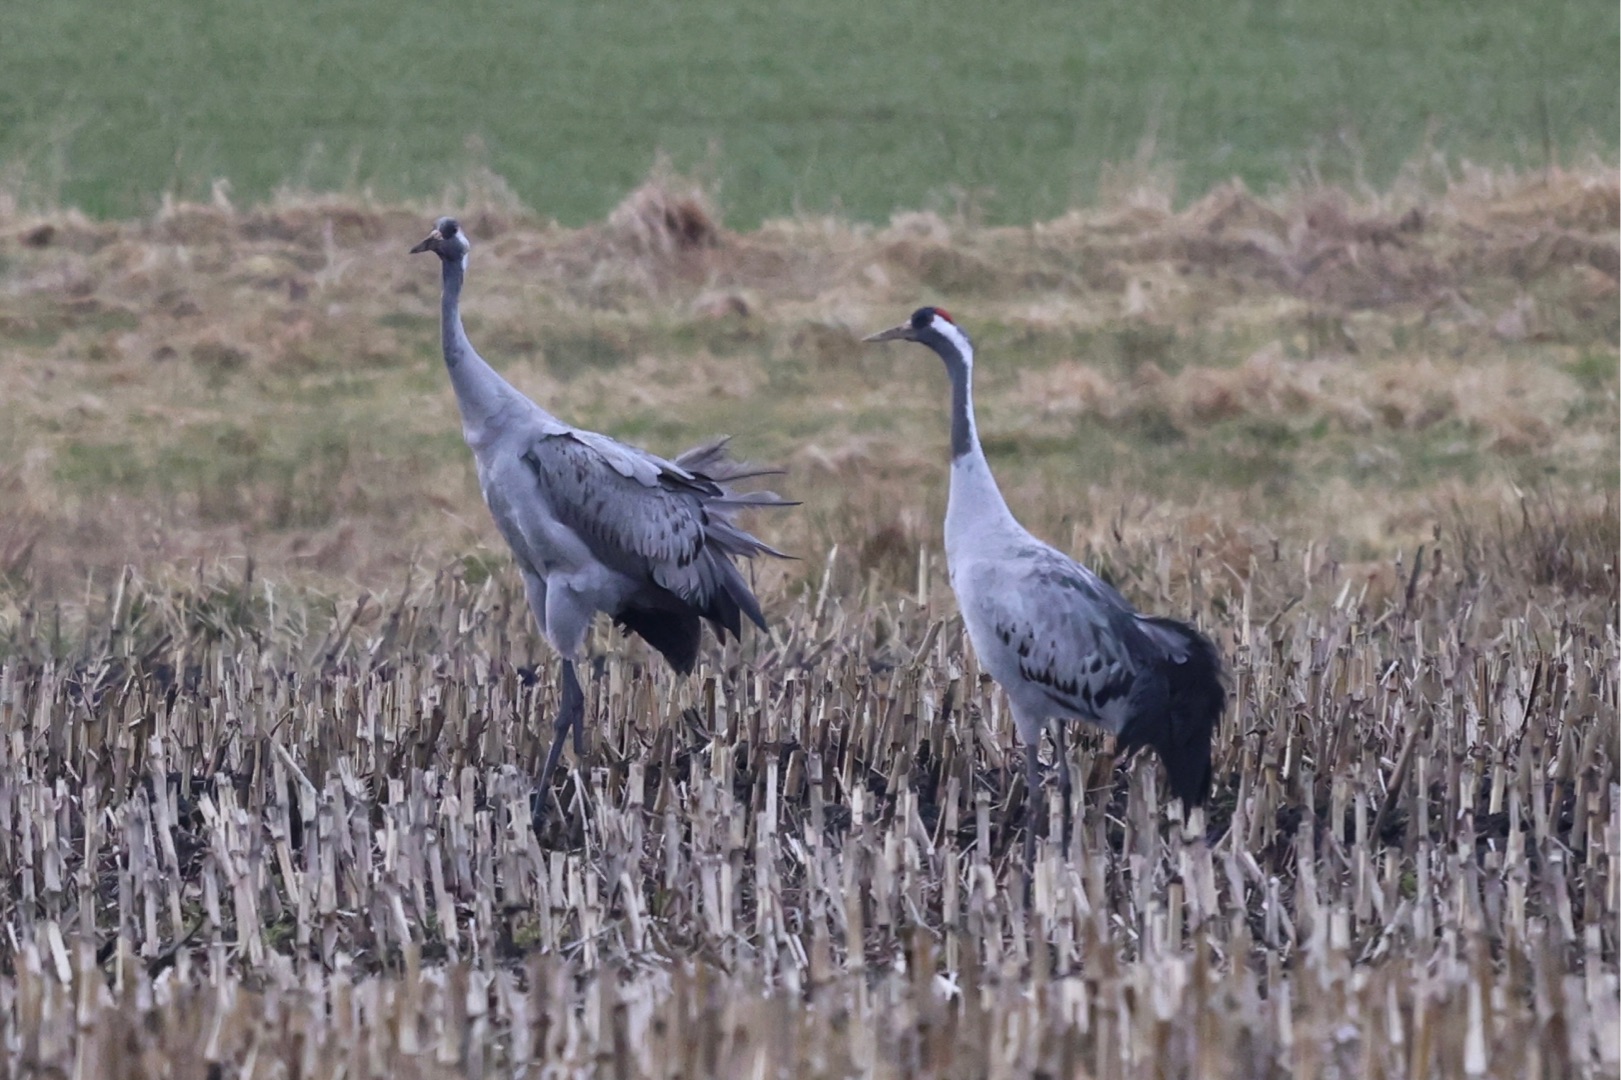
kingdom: Animalia
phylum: Chordata
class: Aves
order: Gruiformes
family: Gruidae
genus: Grus
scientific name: Grus grus
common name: Trane
